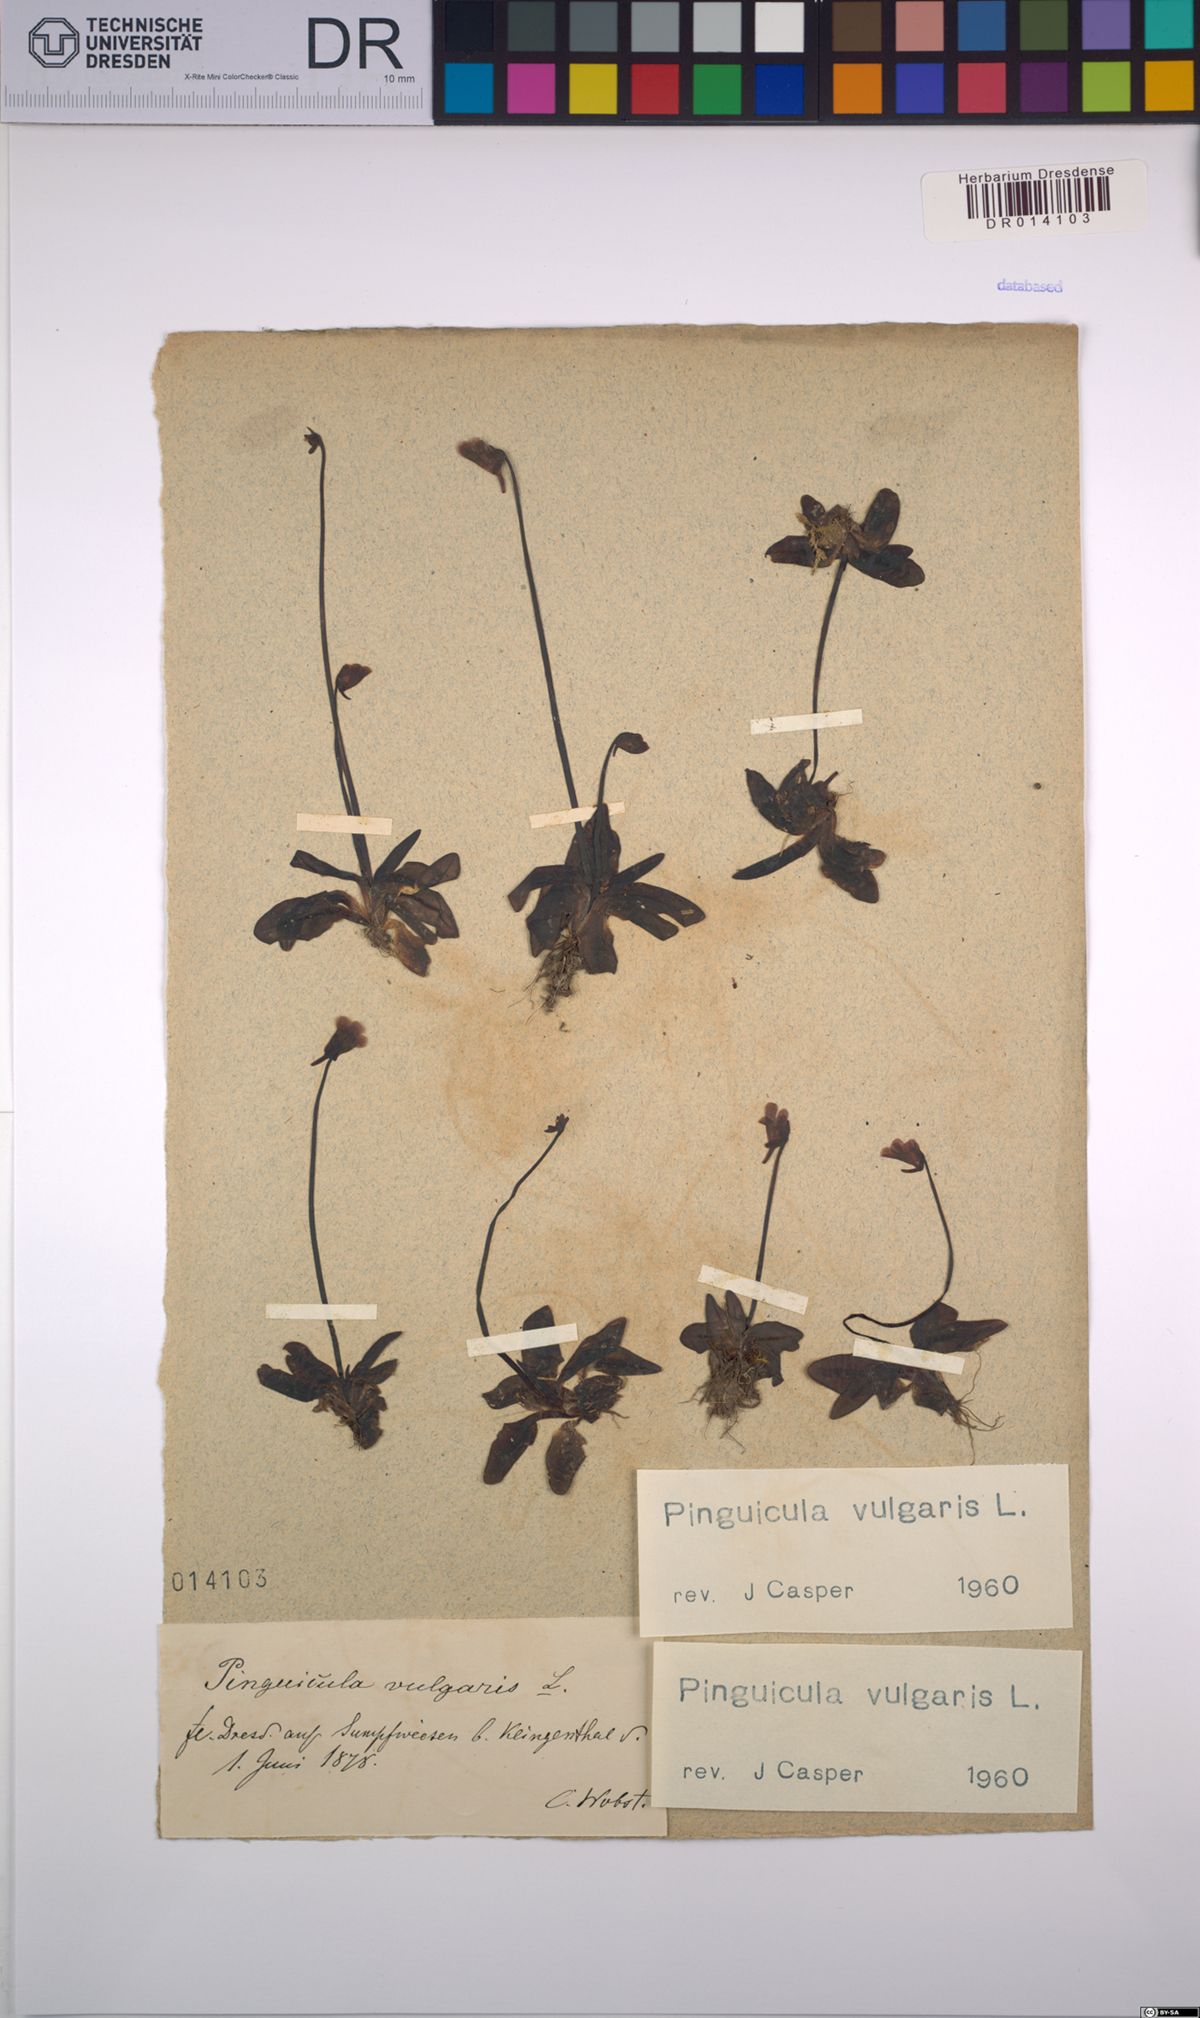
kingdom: Plantae
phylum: Tracheophyta
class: Magnoliopsida
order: Lamiales
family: Lentibulariaceae
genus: Pinguicula
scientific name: Pinguicula vulgaris
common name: Common butterwort
